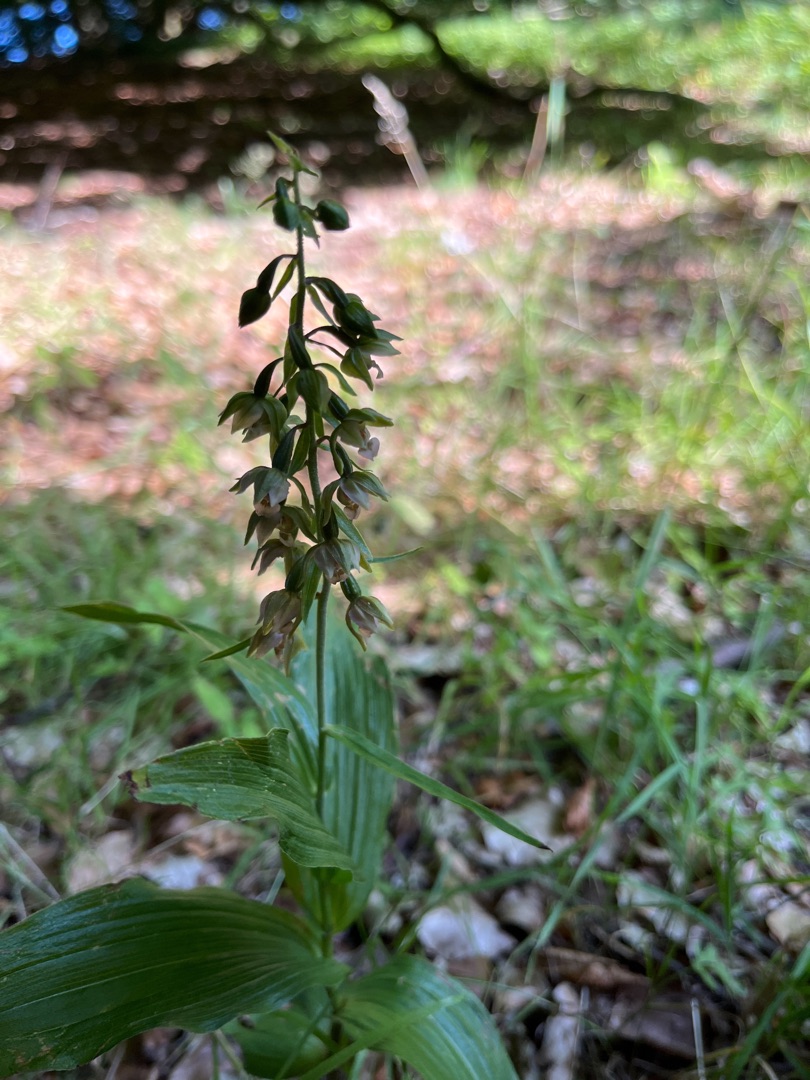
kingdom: Plantae
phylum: Tracheophyta
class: Liliopsida
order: Asparagales
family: Orchidaceae
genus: Epipactis
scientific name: Epipactis helleborine
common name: Skov-hullæbe
